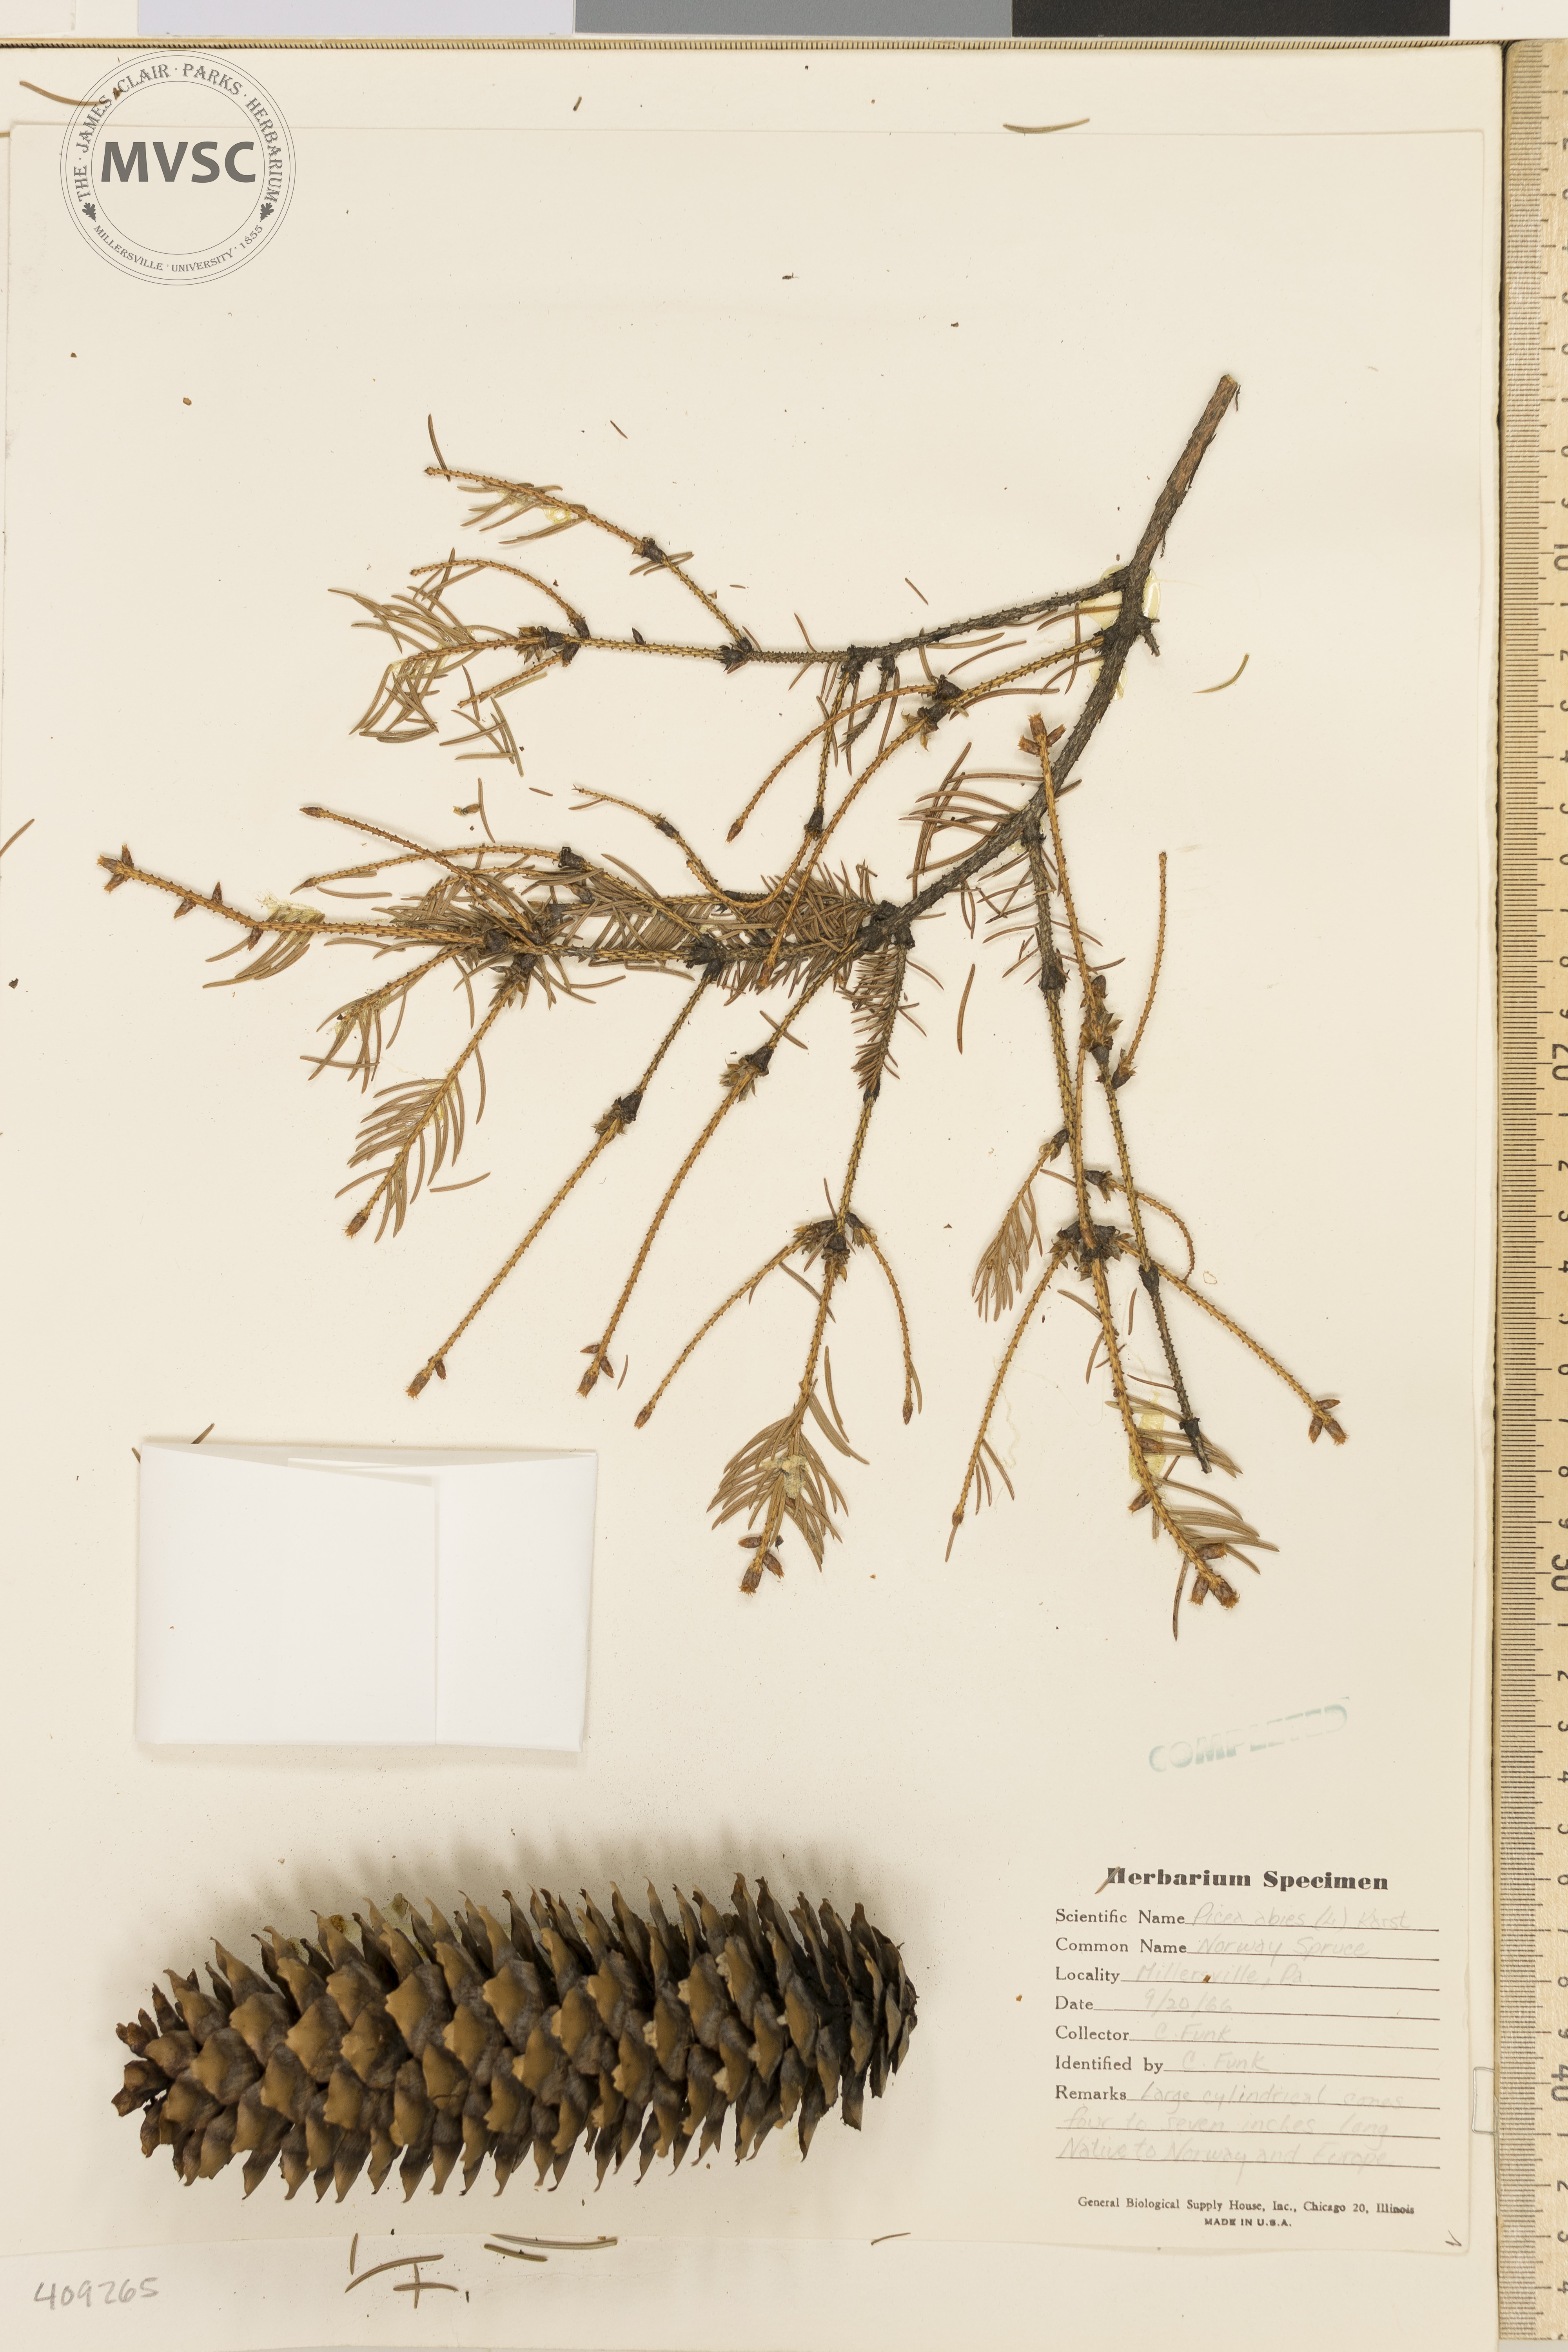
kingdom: Plantae
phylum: Tracheophyta
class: Pinopsida
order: Pinales
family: Pinaceae
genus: Picea
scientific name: Picea abies
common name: Norway spruce
